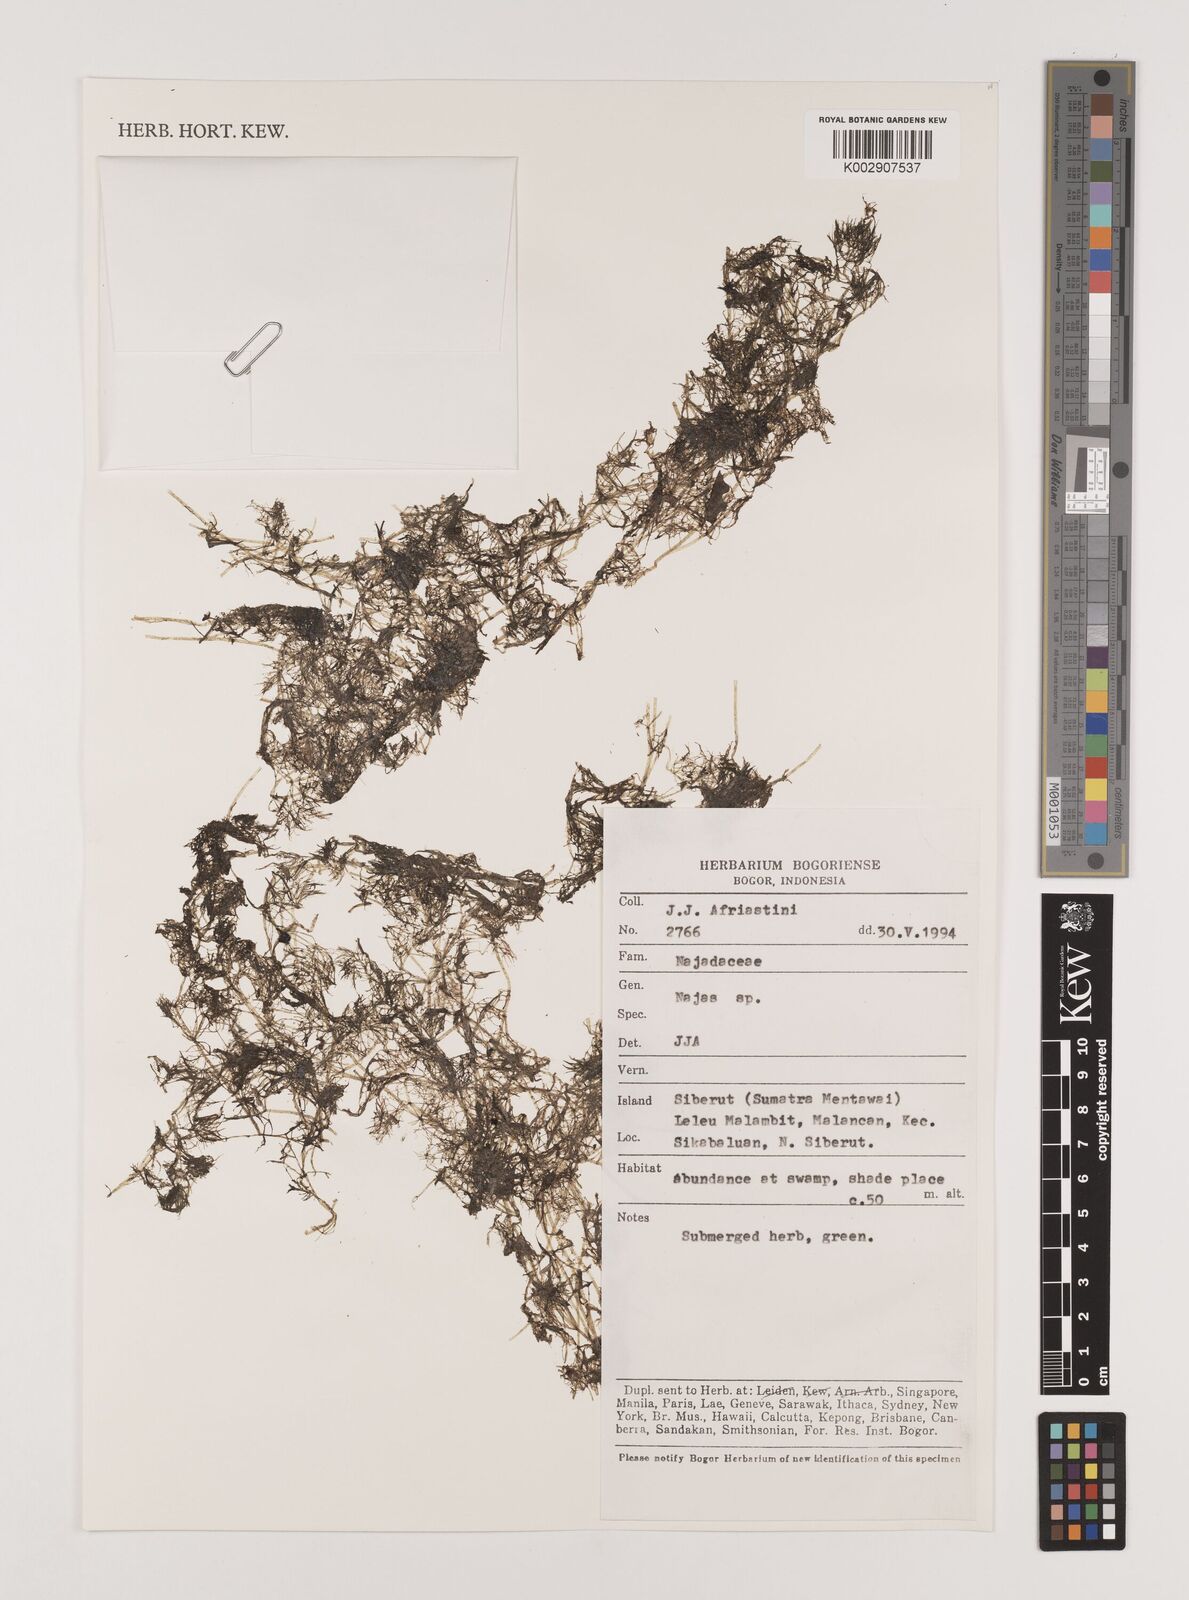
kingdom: Plantae
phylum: Tracheophyta
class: Liliopsida
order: Alismatales
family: Hydrocharitaceae
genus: Najas
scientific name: Najas
